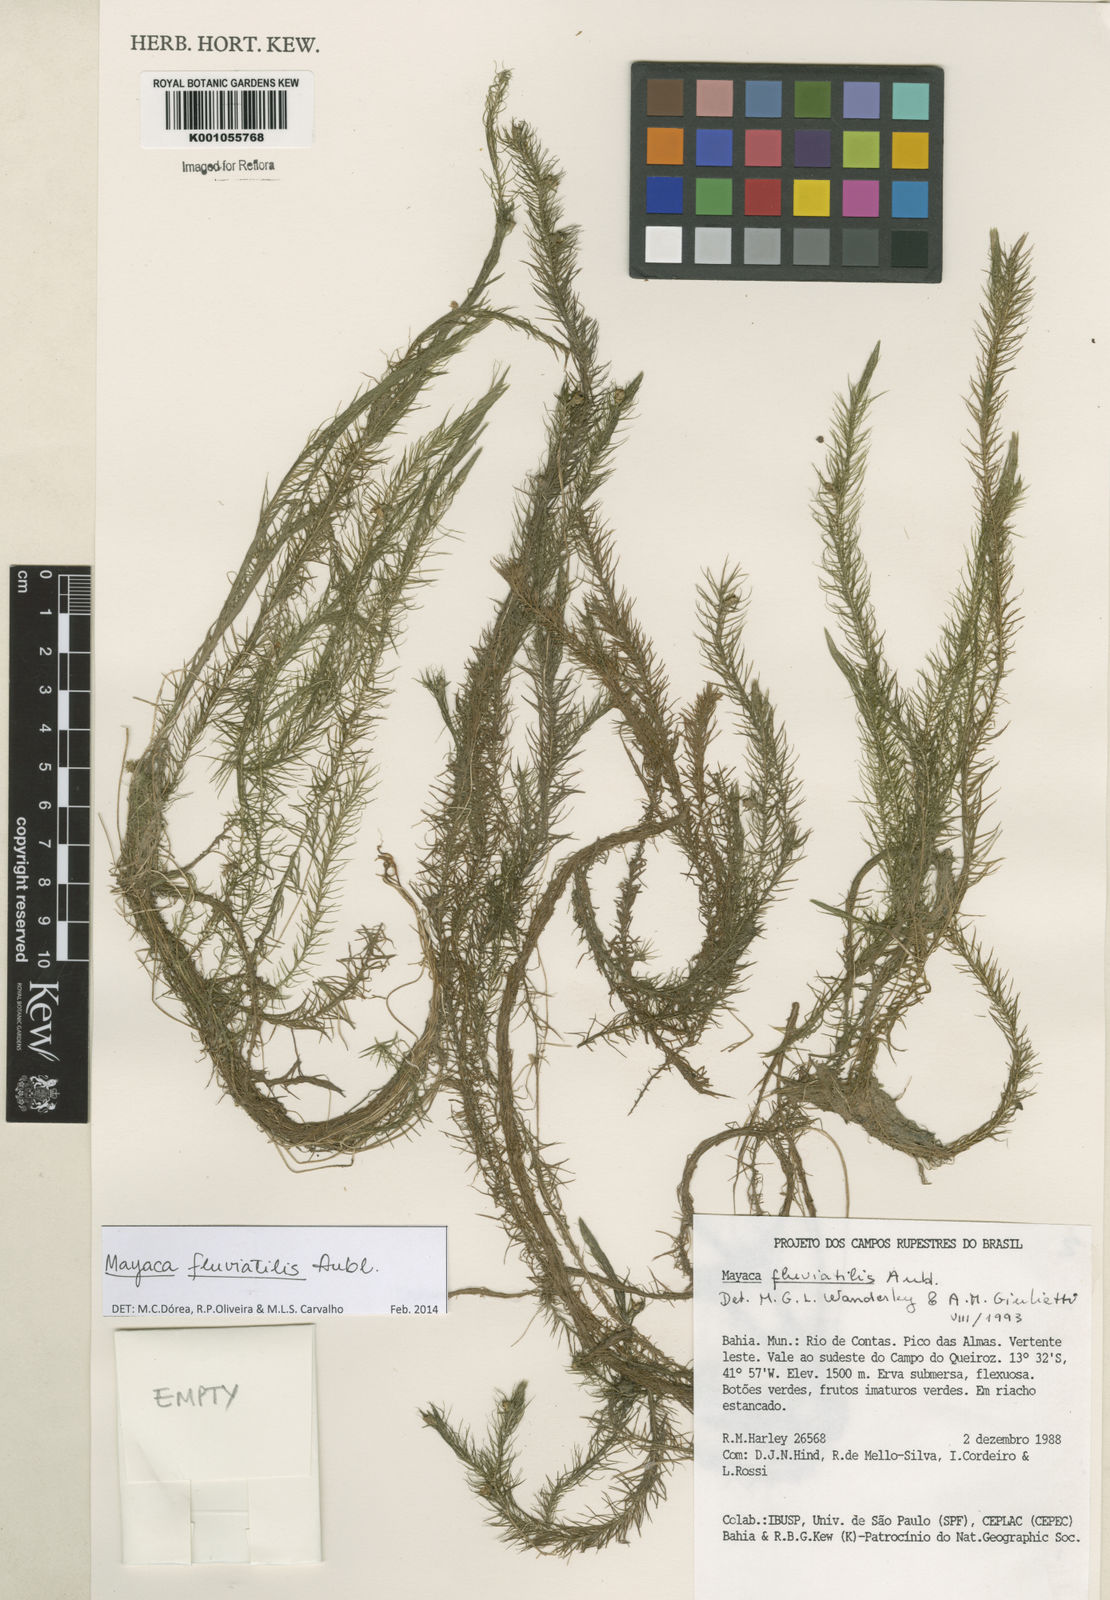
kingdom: Plantae
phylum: Tracheophyta
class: Liliopsida
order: Poales
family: Mayacaceae
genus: Mayaca
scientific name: Mayaca
